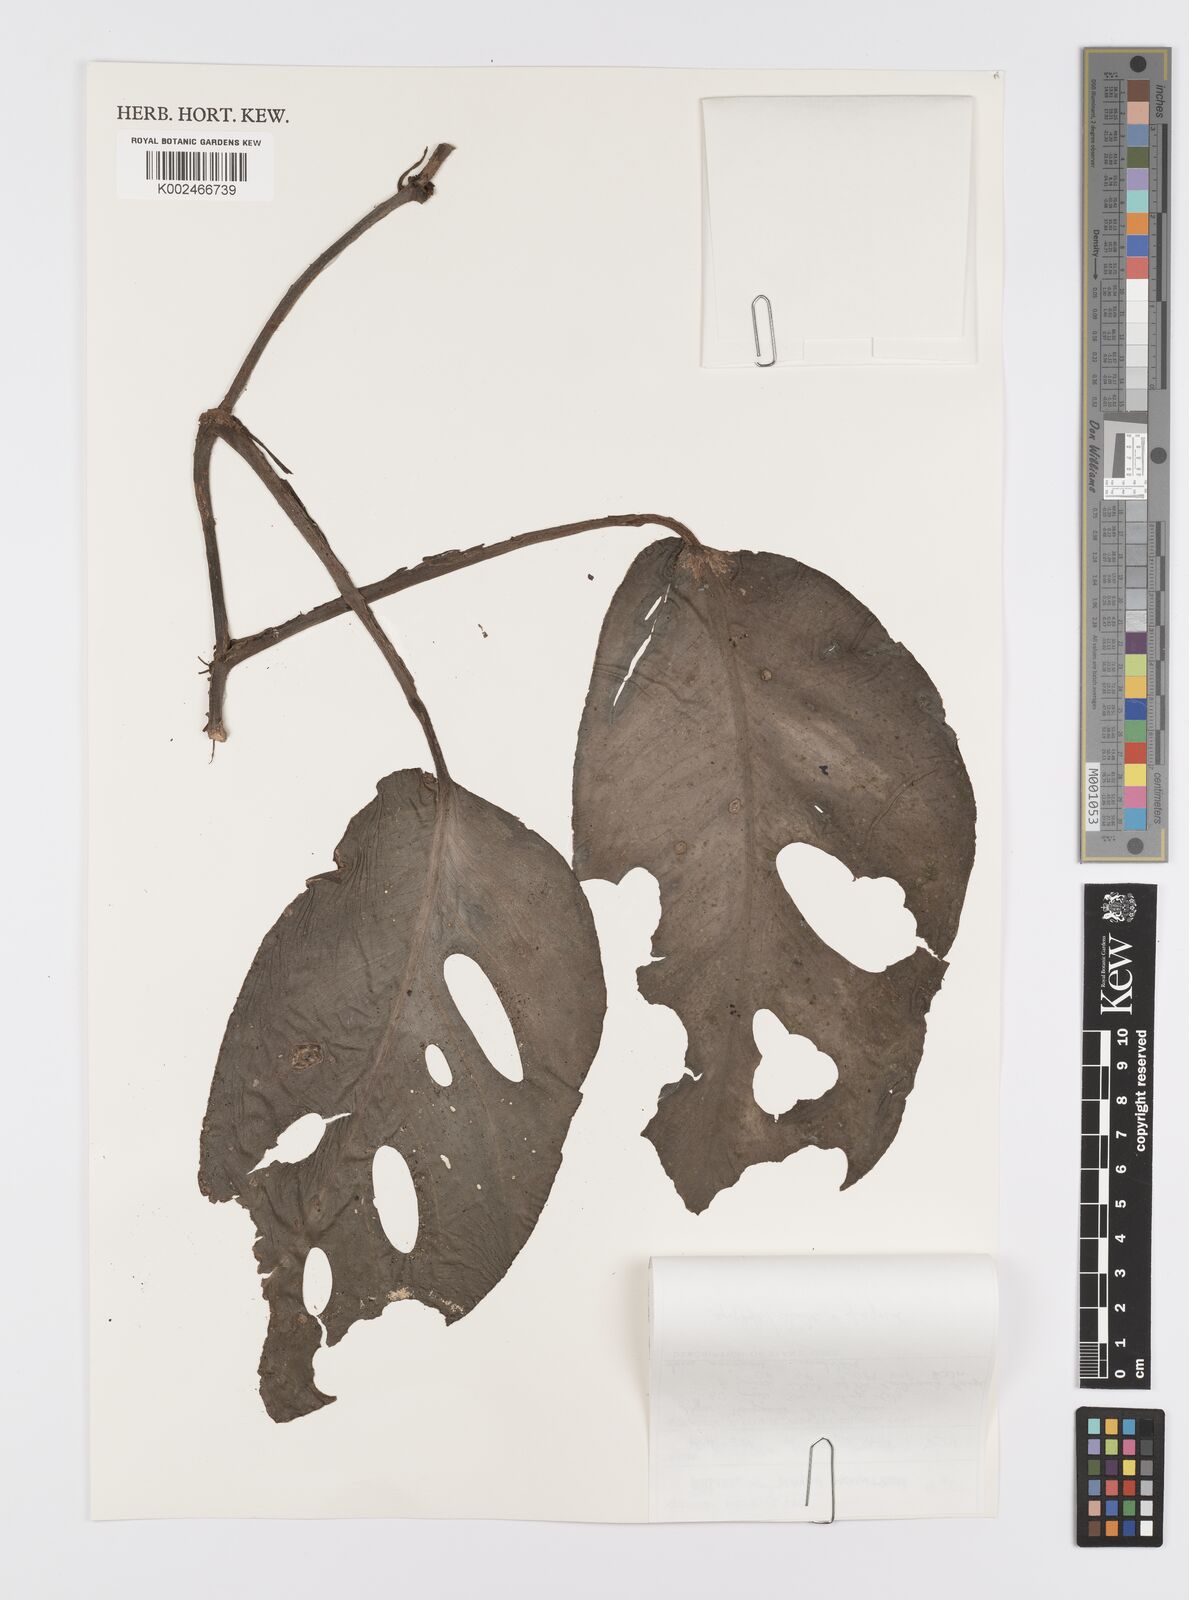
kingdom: Plantae
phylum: Tracheophyta
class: Liliopsida
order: Alismatales
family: Araceae
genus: Monstera
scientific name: Monstera acuminata
